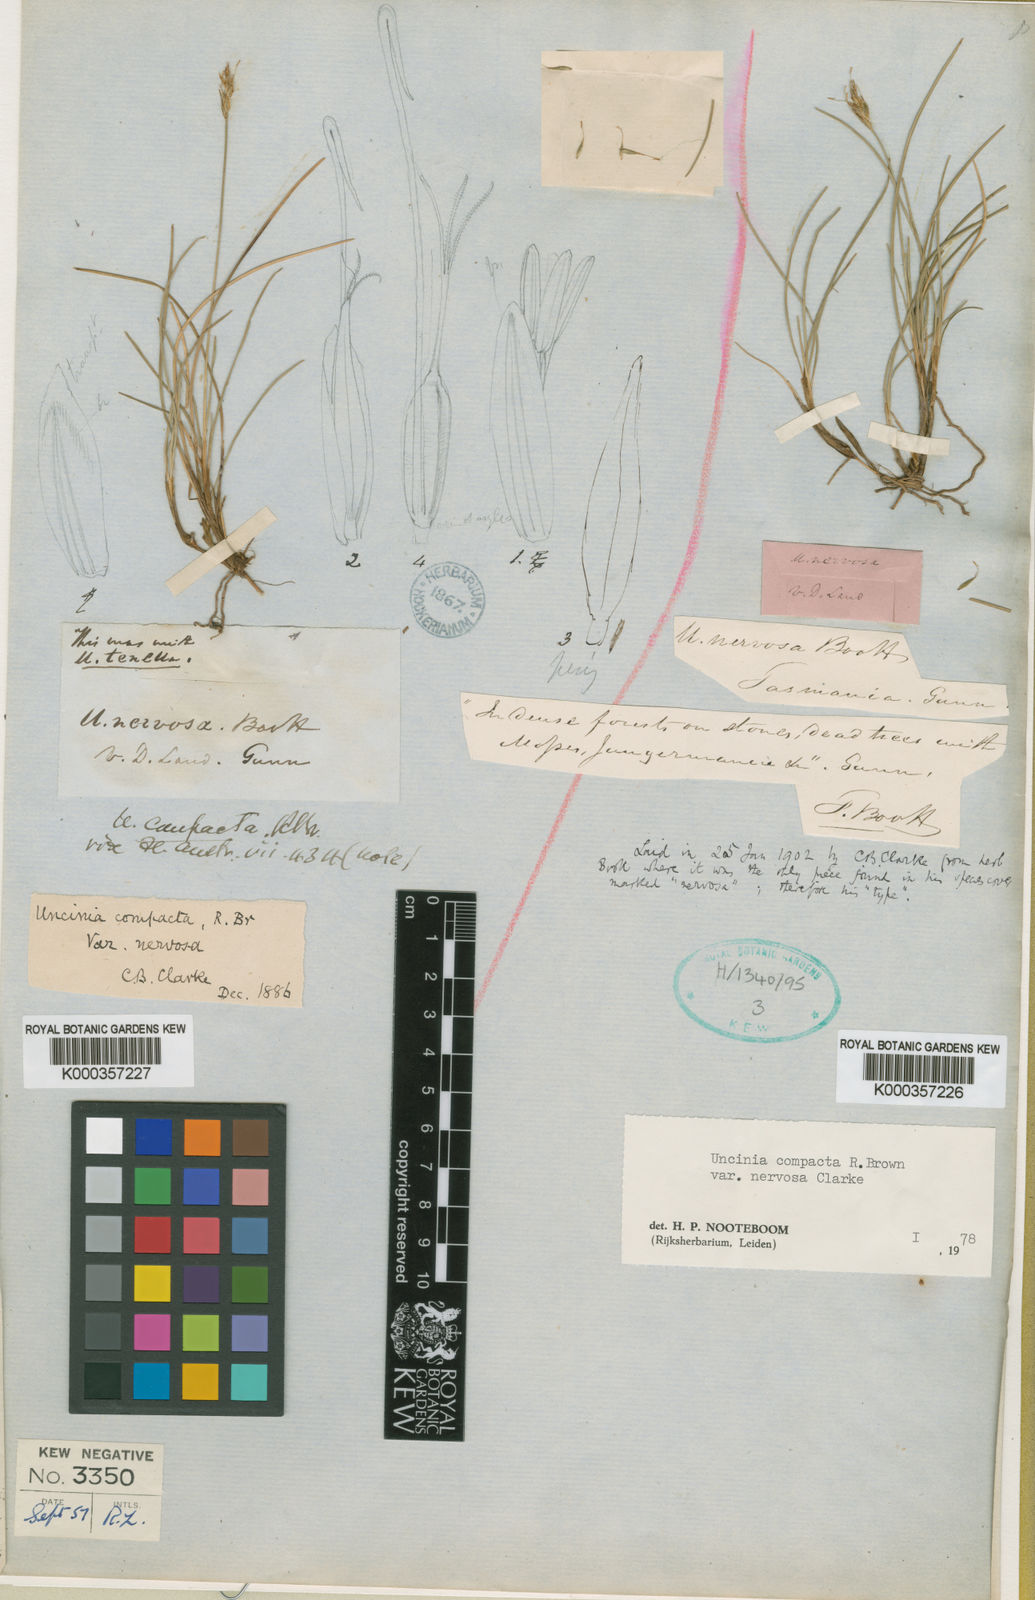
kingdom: Plantae
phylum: Tracheophyta
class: Liliopsida
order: Poales
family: Cyperaceae
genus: Carex
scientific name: Carex cheesemanniana
